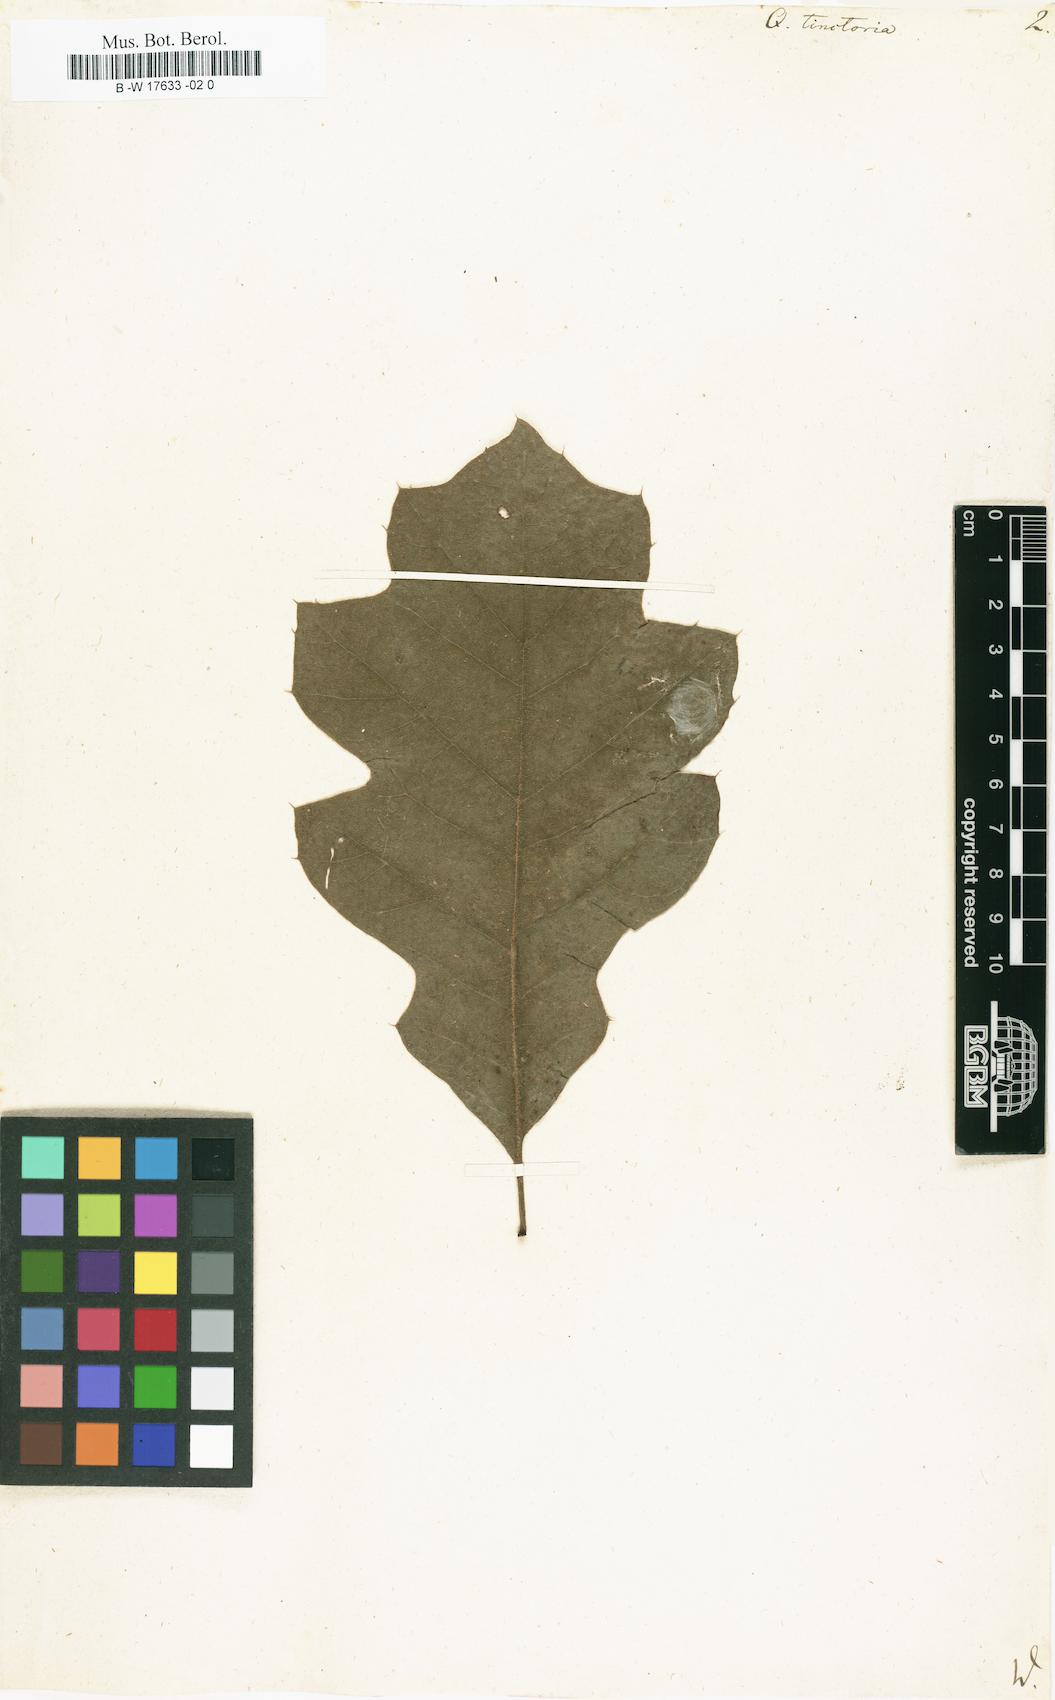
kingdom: Plantae
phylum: Tracheophyta
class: Magnoliopsida
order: Fagales
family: Fagaceae
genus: Quercus
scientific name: Quercus velutina
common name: Black oak
